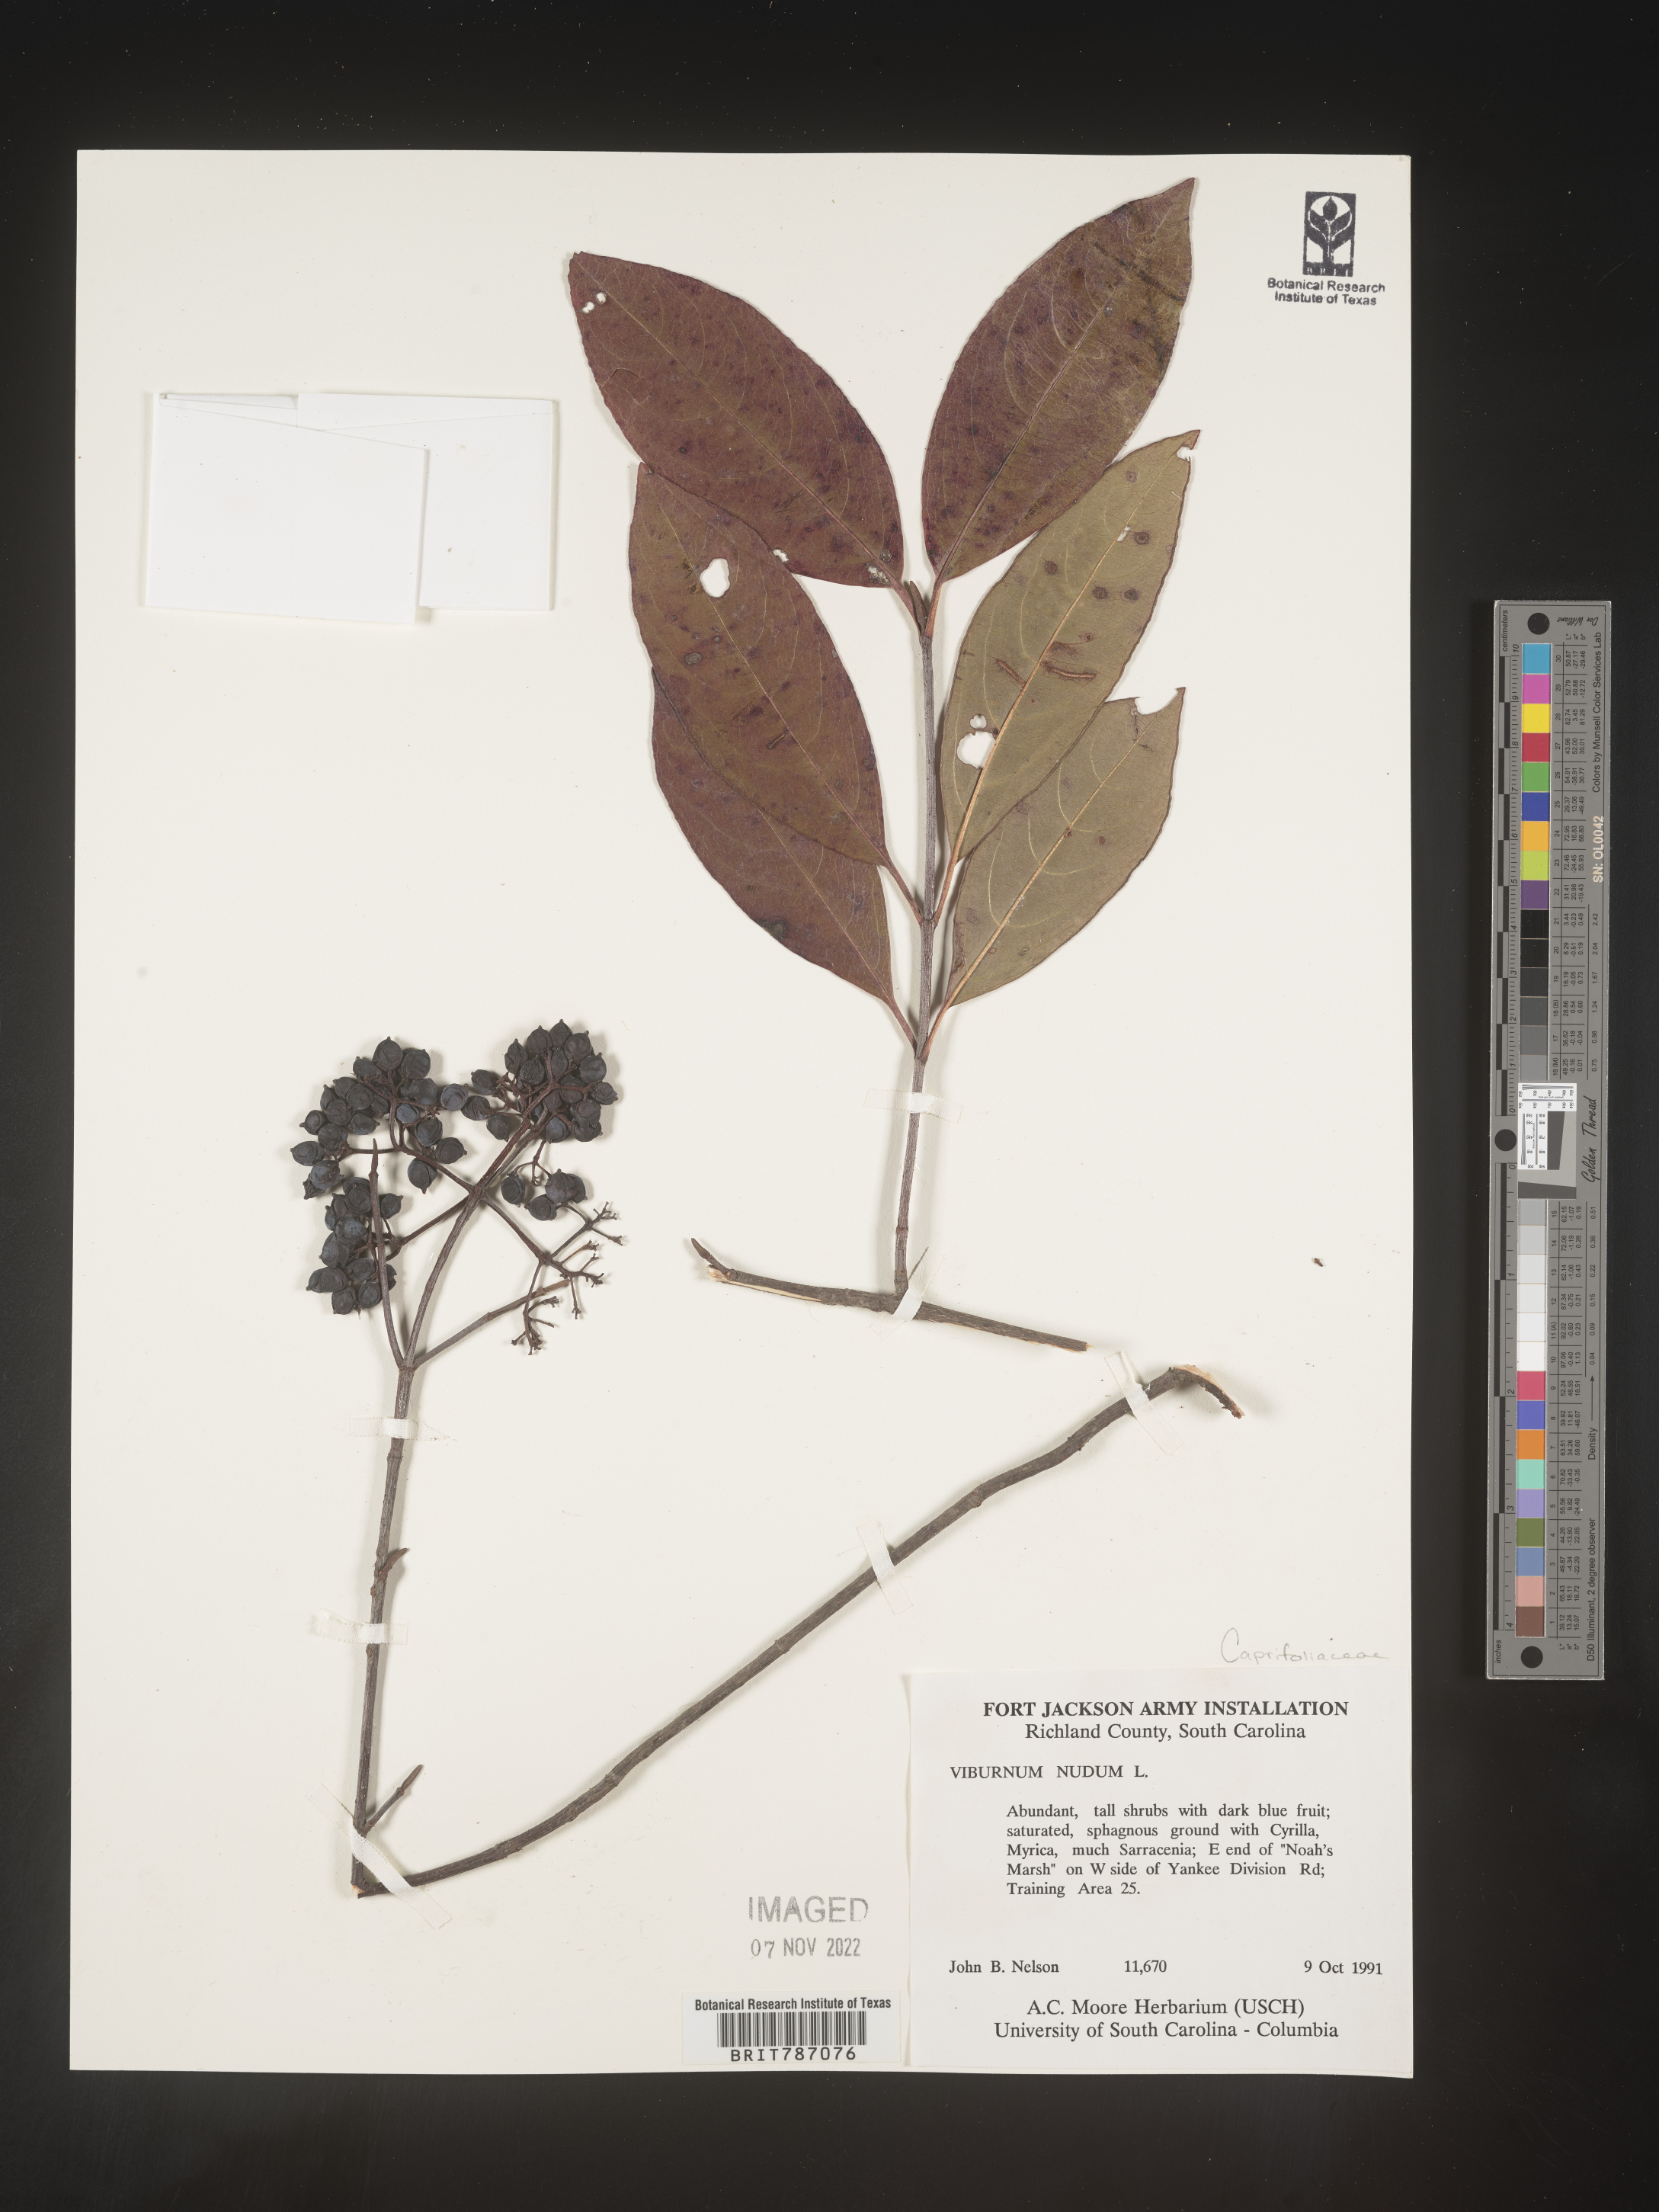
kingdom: Plantae
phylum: Tracheophyta
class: Magnoliopsida
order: Dipsacales
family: Viburnaceae
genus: Viburnum
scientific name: Viburnum nudum
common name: Possum haw
